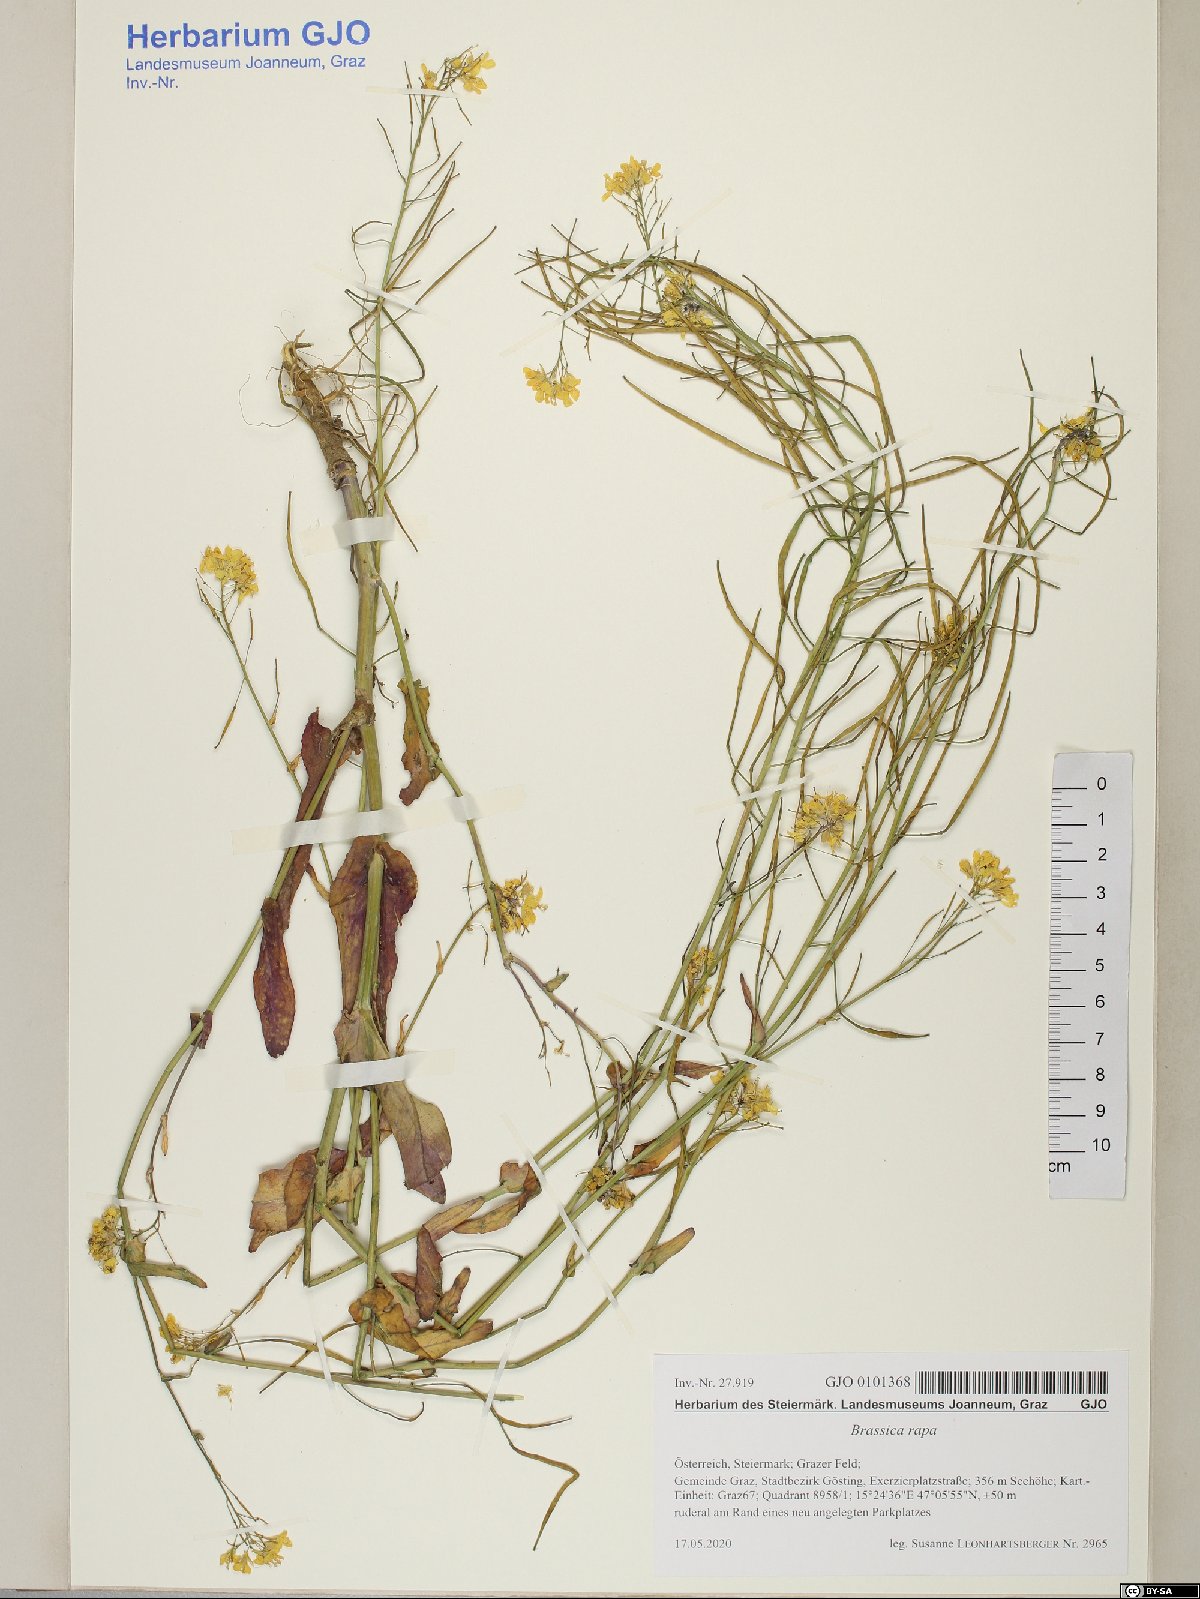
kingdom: Plantae
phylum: Tracheophyta
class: Magnoliopsida
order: Brassicales
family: Brassicaceae
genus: Brassica
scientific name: Brassica rapa
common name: Field mustard
